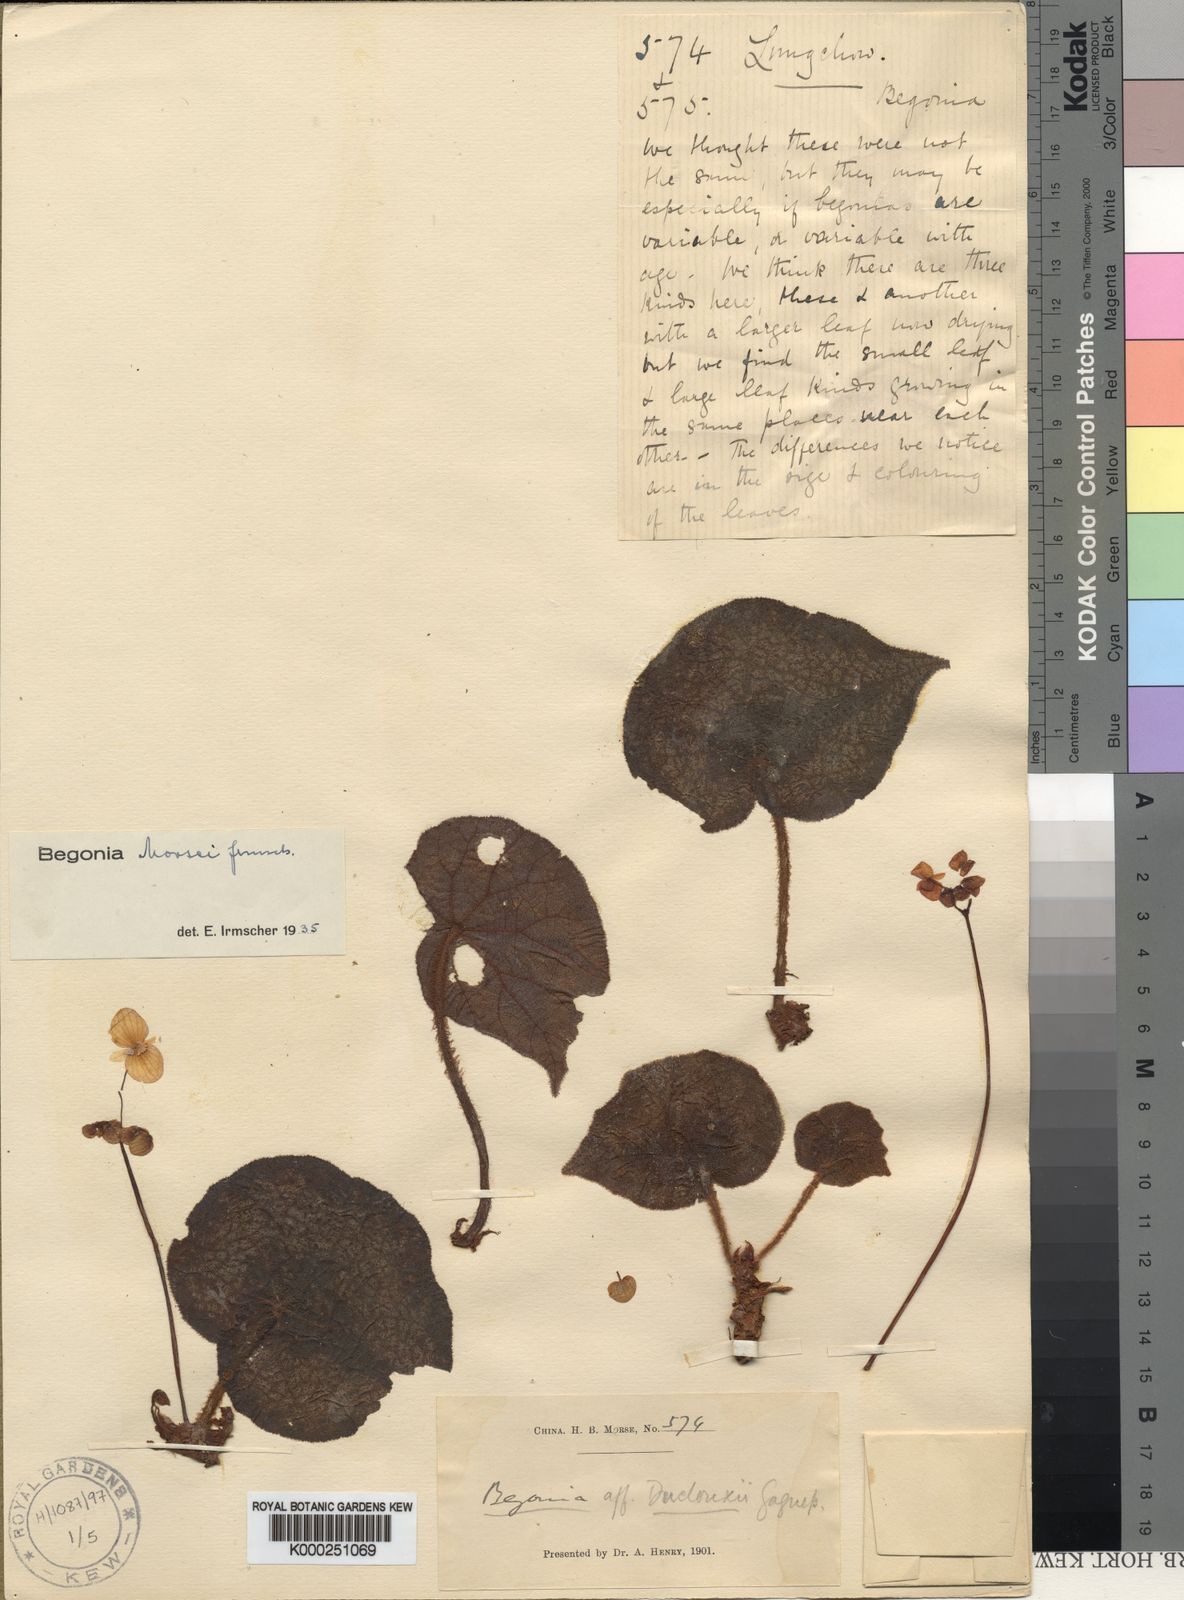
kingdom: Plantae
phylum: Tracheophyta
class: Magnoliopsida
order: Cucurbitales
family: Begoniaceae
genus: Begonia
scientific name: Begonia morsei
